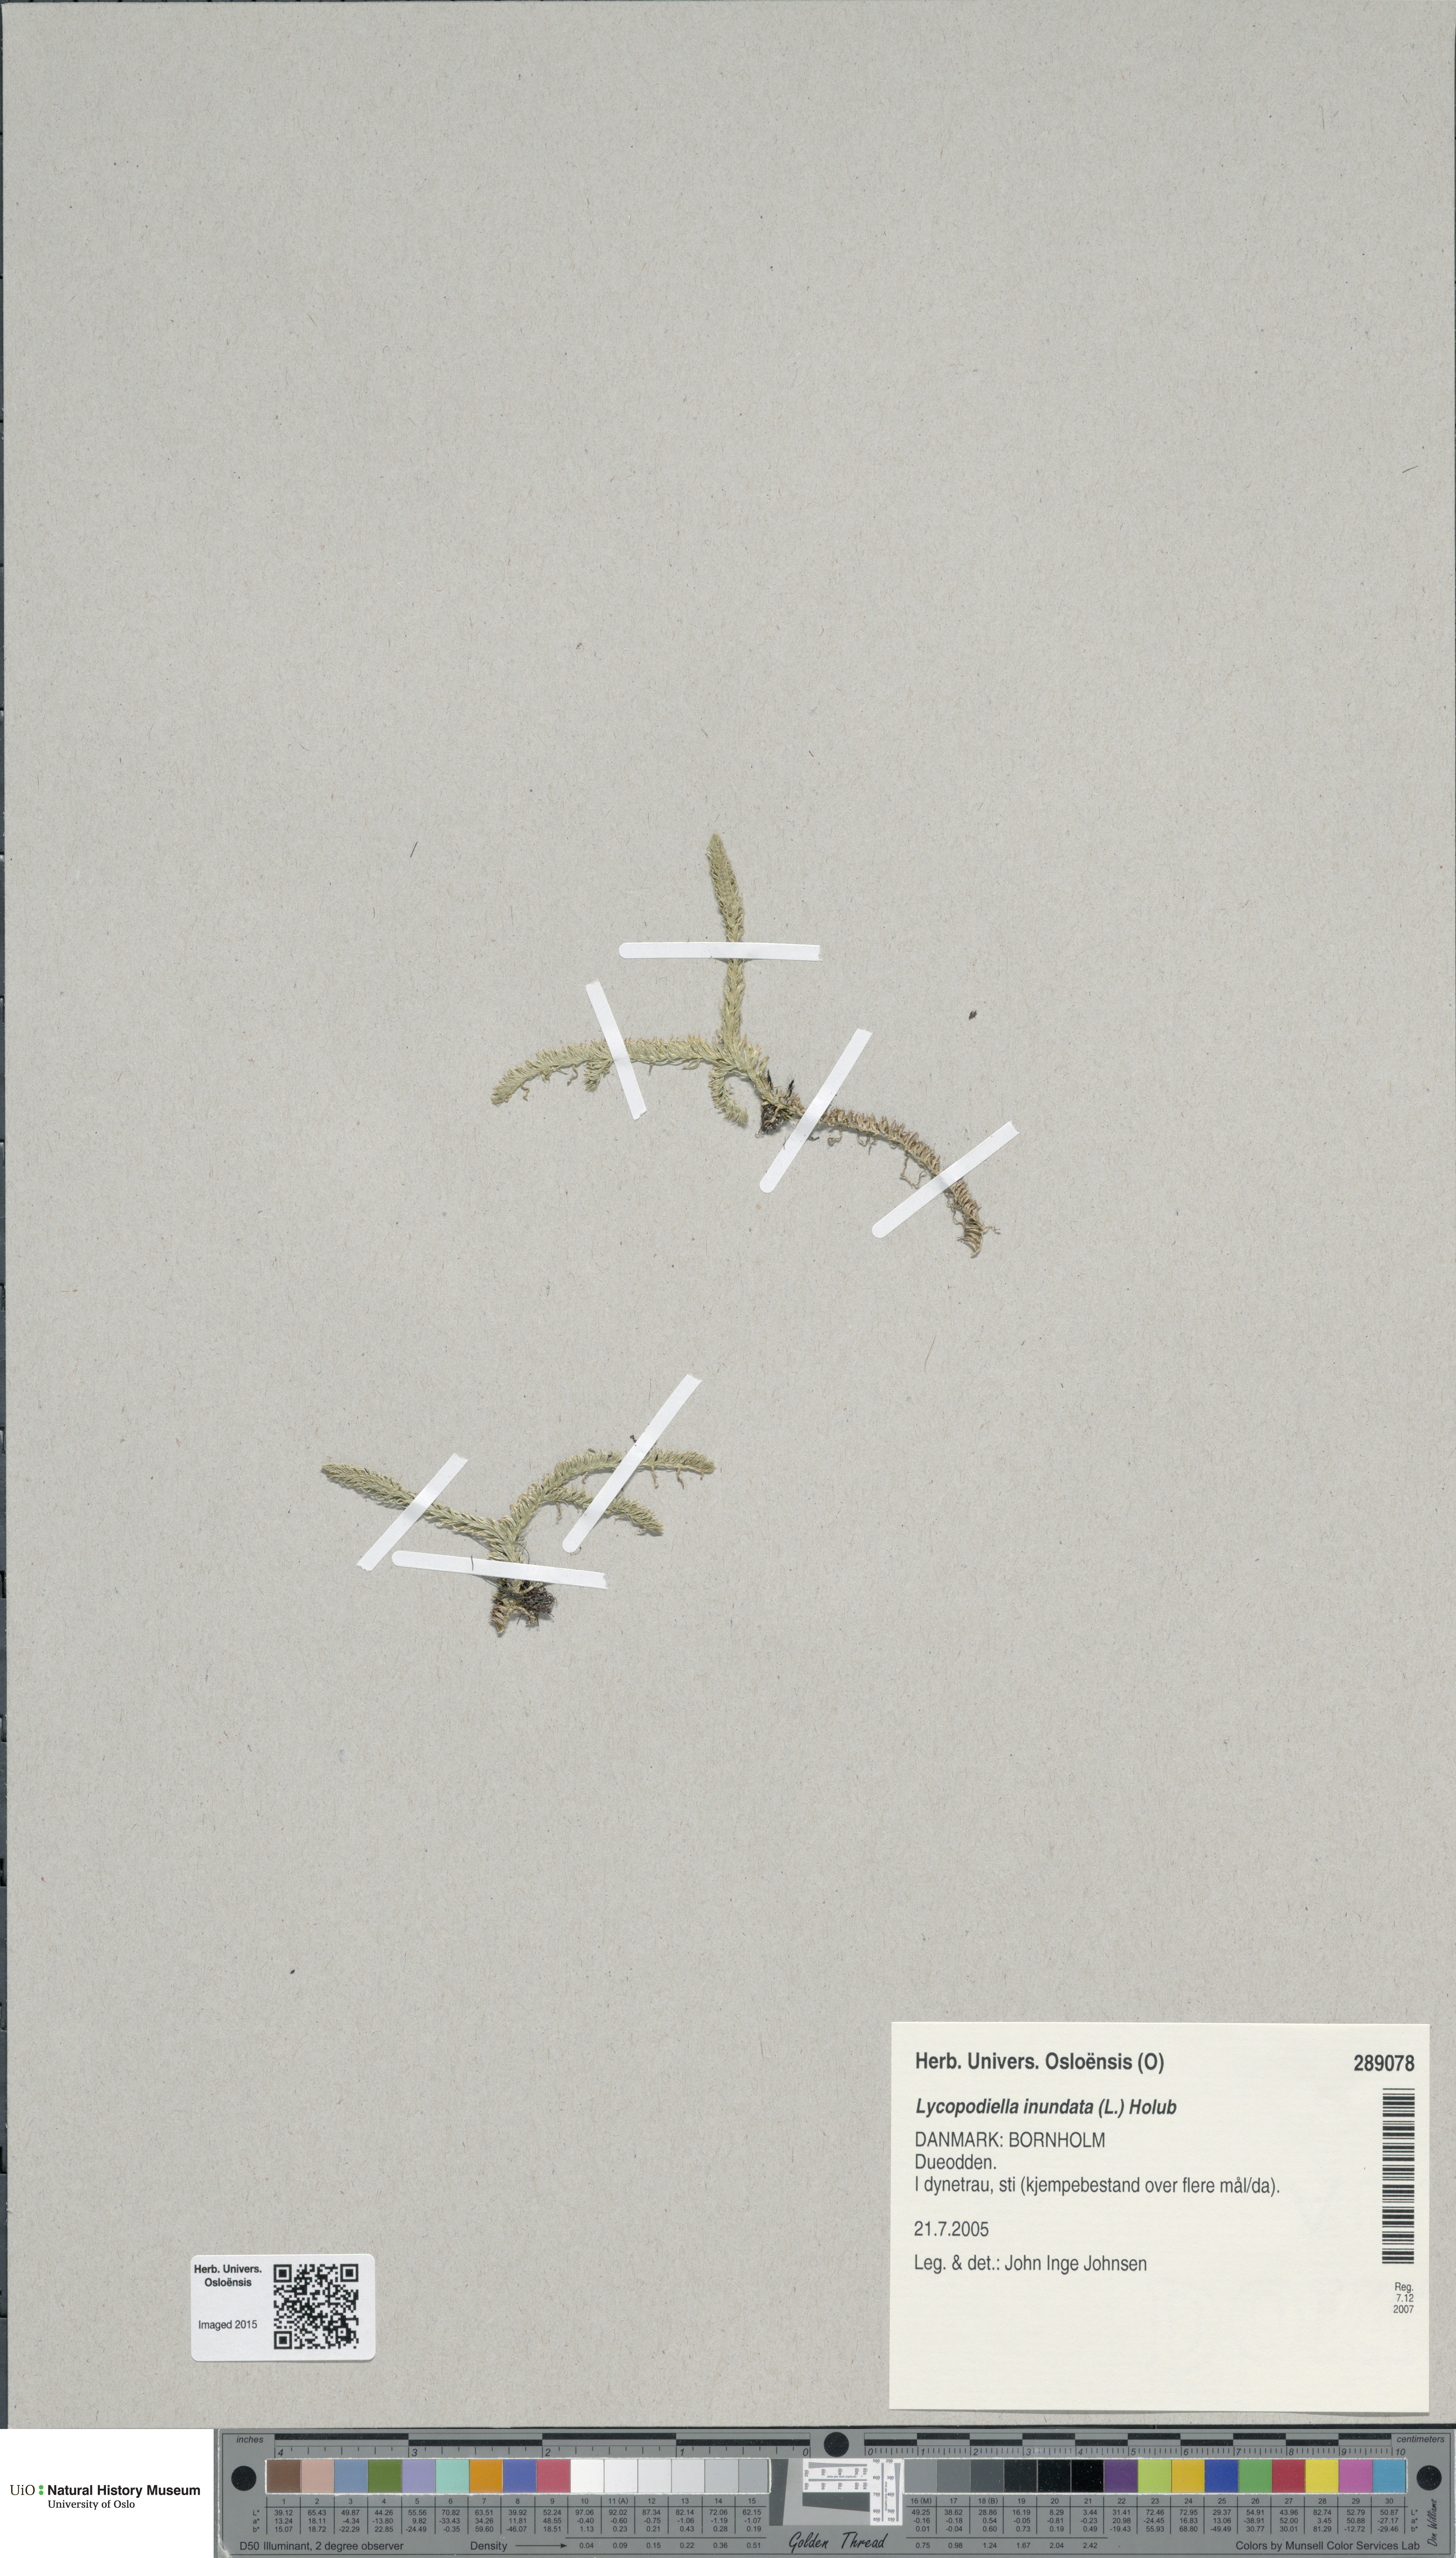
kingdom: Plantae
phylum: Tracheophyta
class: Lycopodiopsida
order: Lycopodiales
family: Lycopodiaceae
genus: Lycopodiella
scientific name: Lycopodiella inundata
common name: Marsh clubmoss
